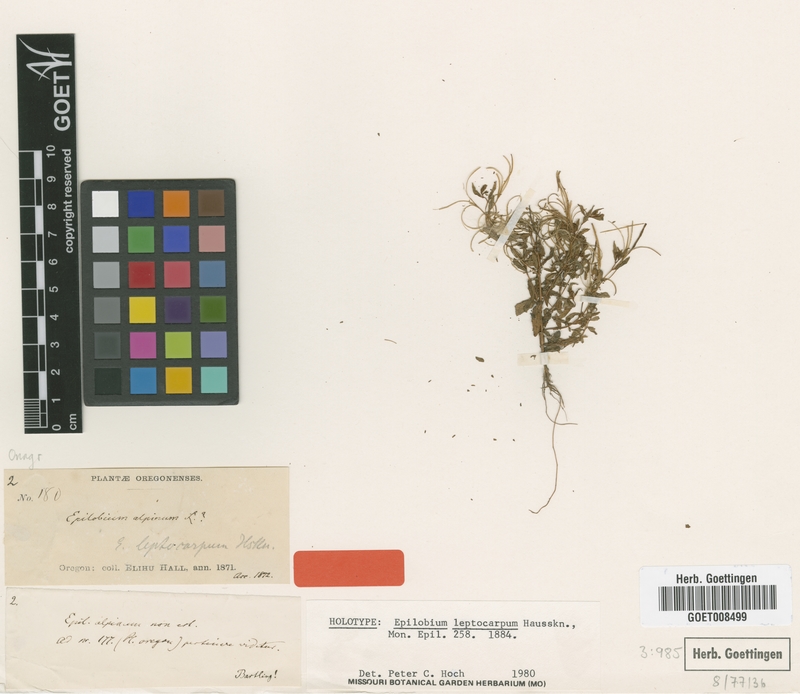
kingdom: Plantae
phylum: Tracheophyta
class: Magnoliopsida
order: Myrtales
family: Onagraceae
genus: Epilobium
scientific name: Epilobium leptocarpum
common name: Low willowherb
